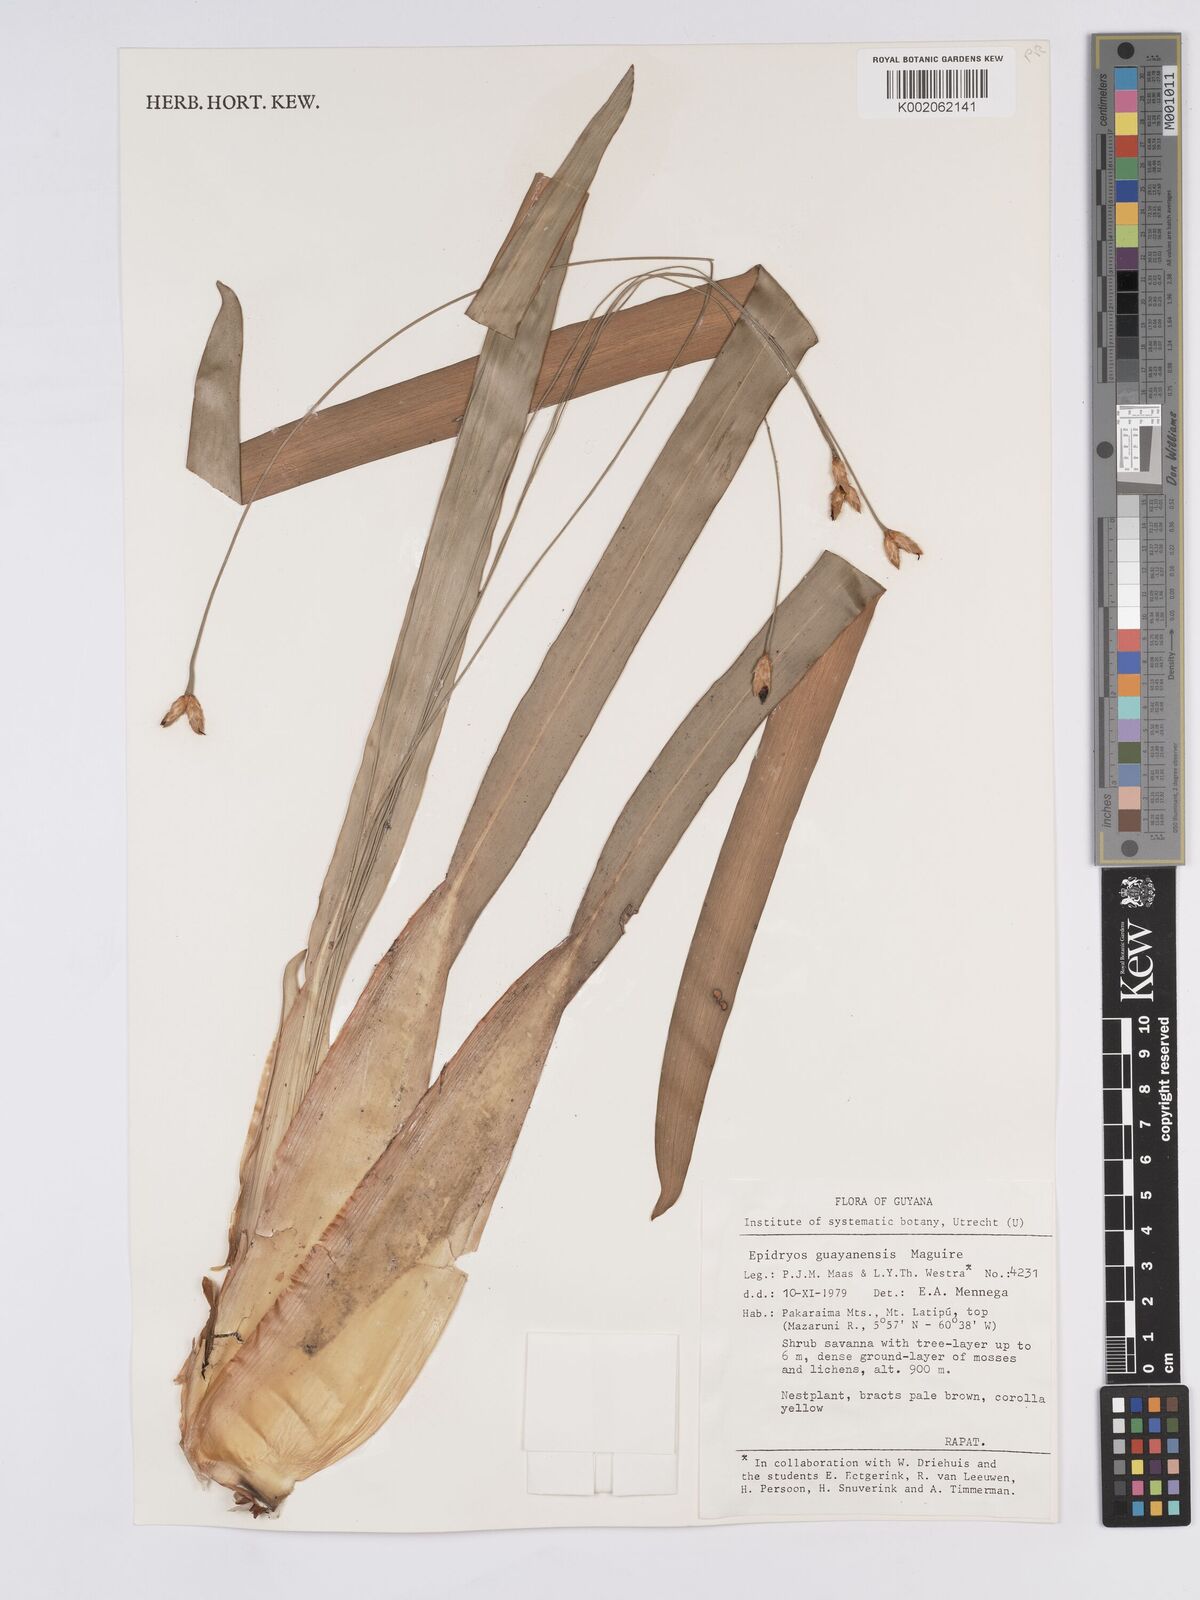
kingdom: Plantae
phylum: Tracheophyta
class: Liliopsida
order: Poales
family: Rapateaceae
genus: Epidryos
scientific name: Epidryos guayanensis
